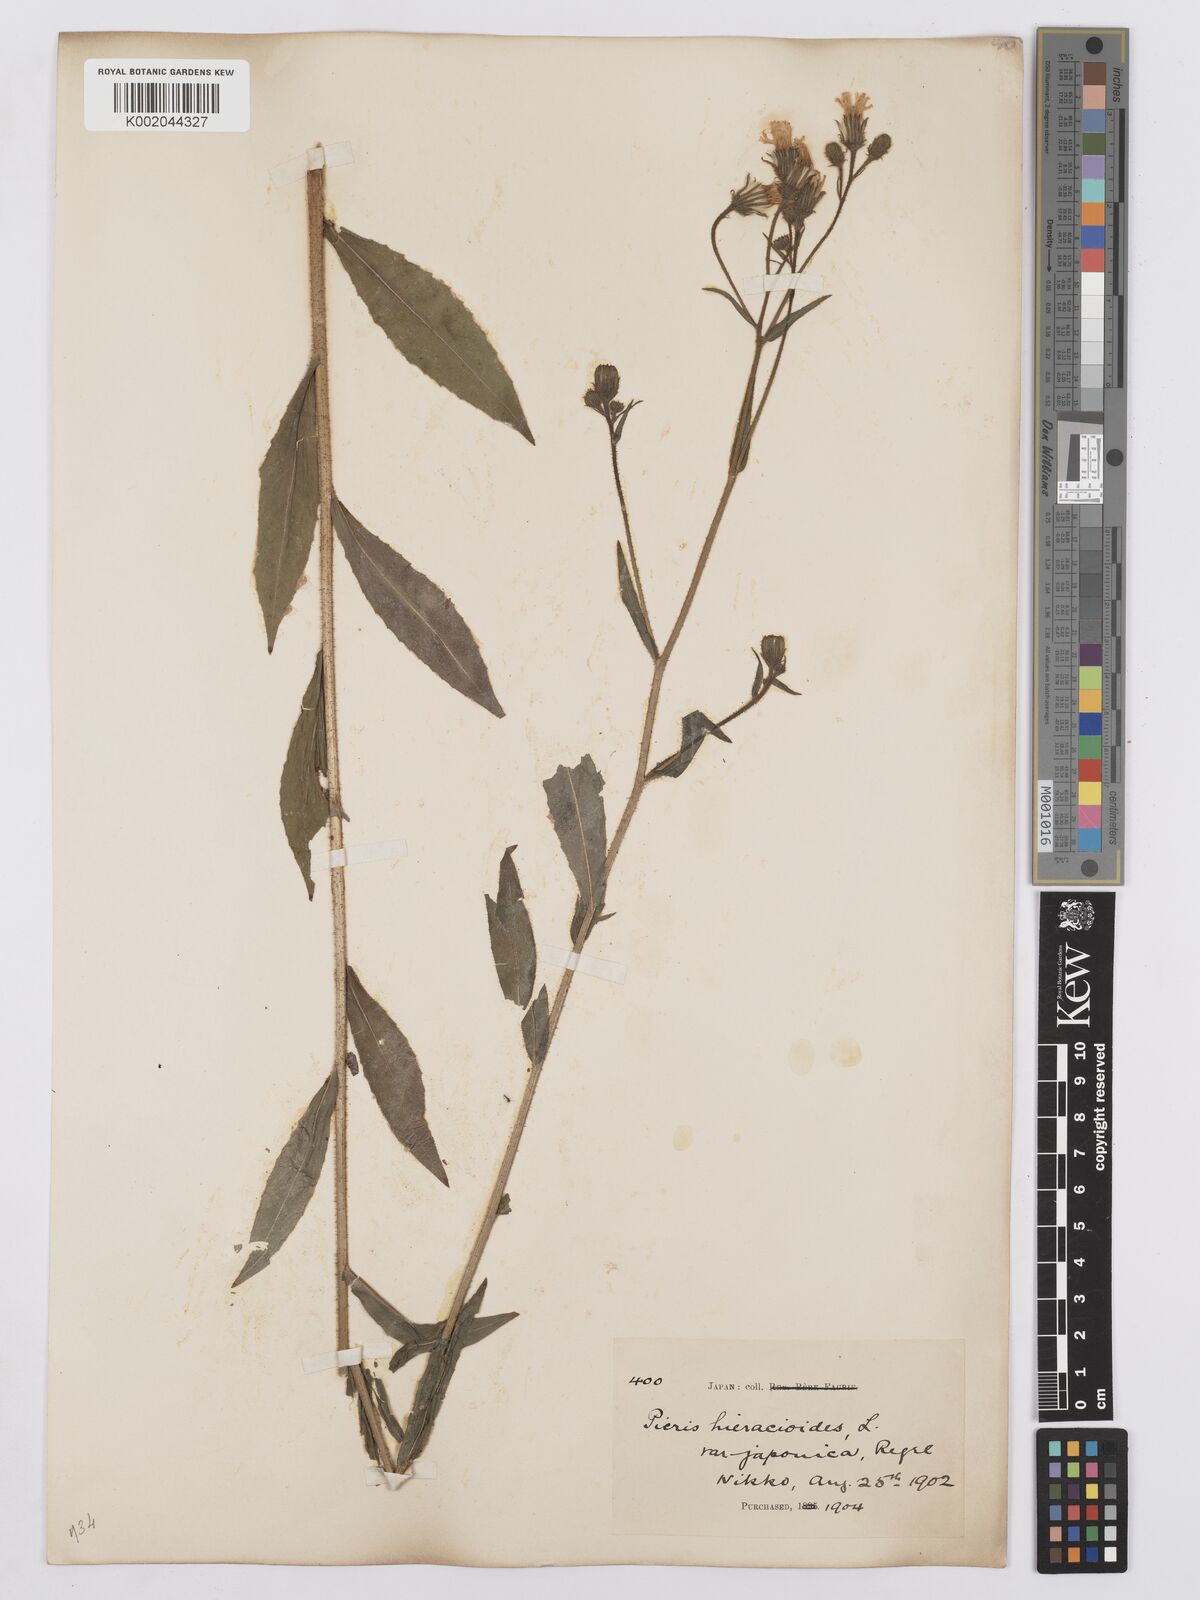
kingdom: Plantae
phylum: Tracheophyta
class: Magnoliopsida
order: Asterales
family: Asteraceae
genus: Picris
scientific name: Picris hieracioides
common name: Hawkweed oxtongue
